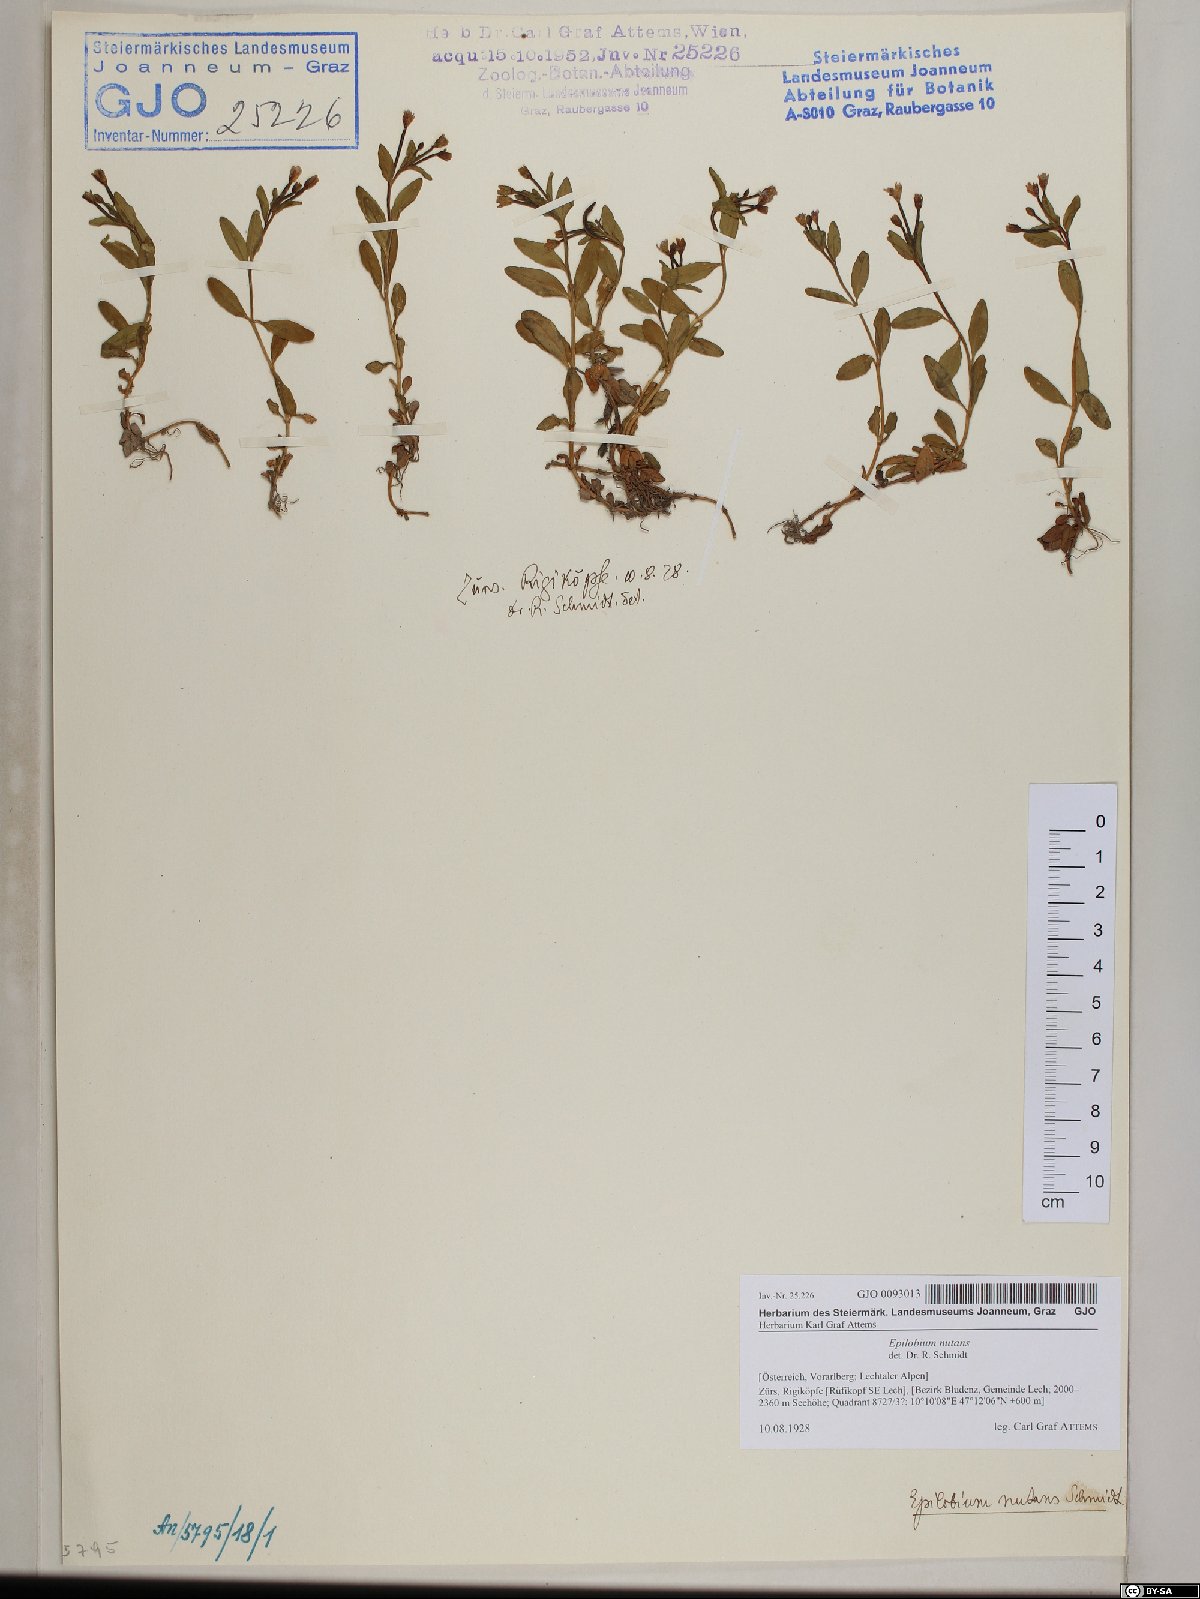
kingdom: Plantae
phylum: Tracheophyta
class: Magnoliopsida
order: Myrtales
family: Onagraceae
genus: Epilobium
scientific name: Epilobium nutans
